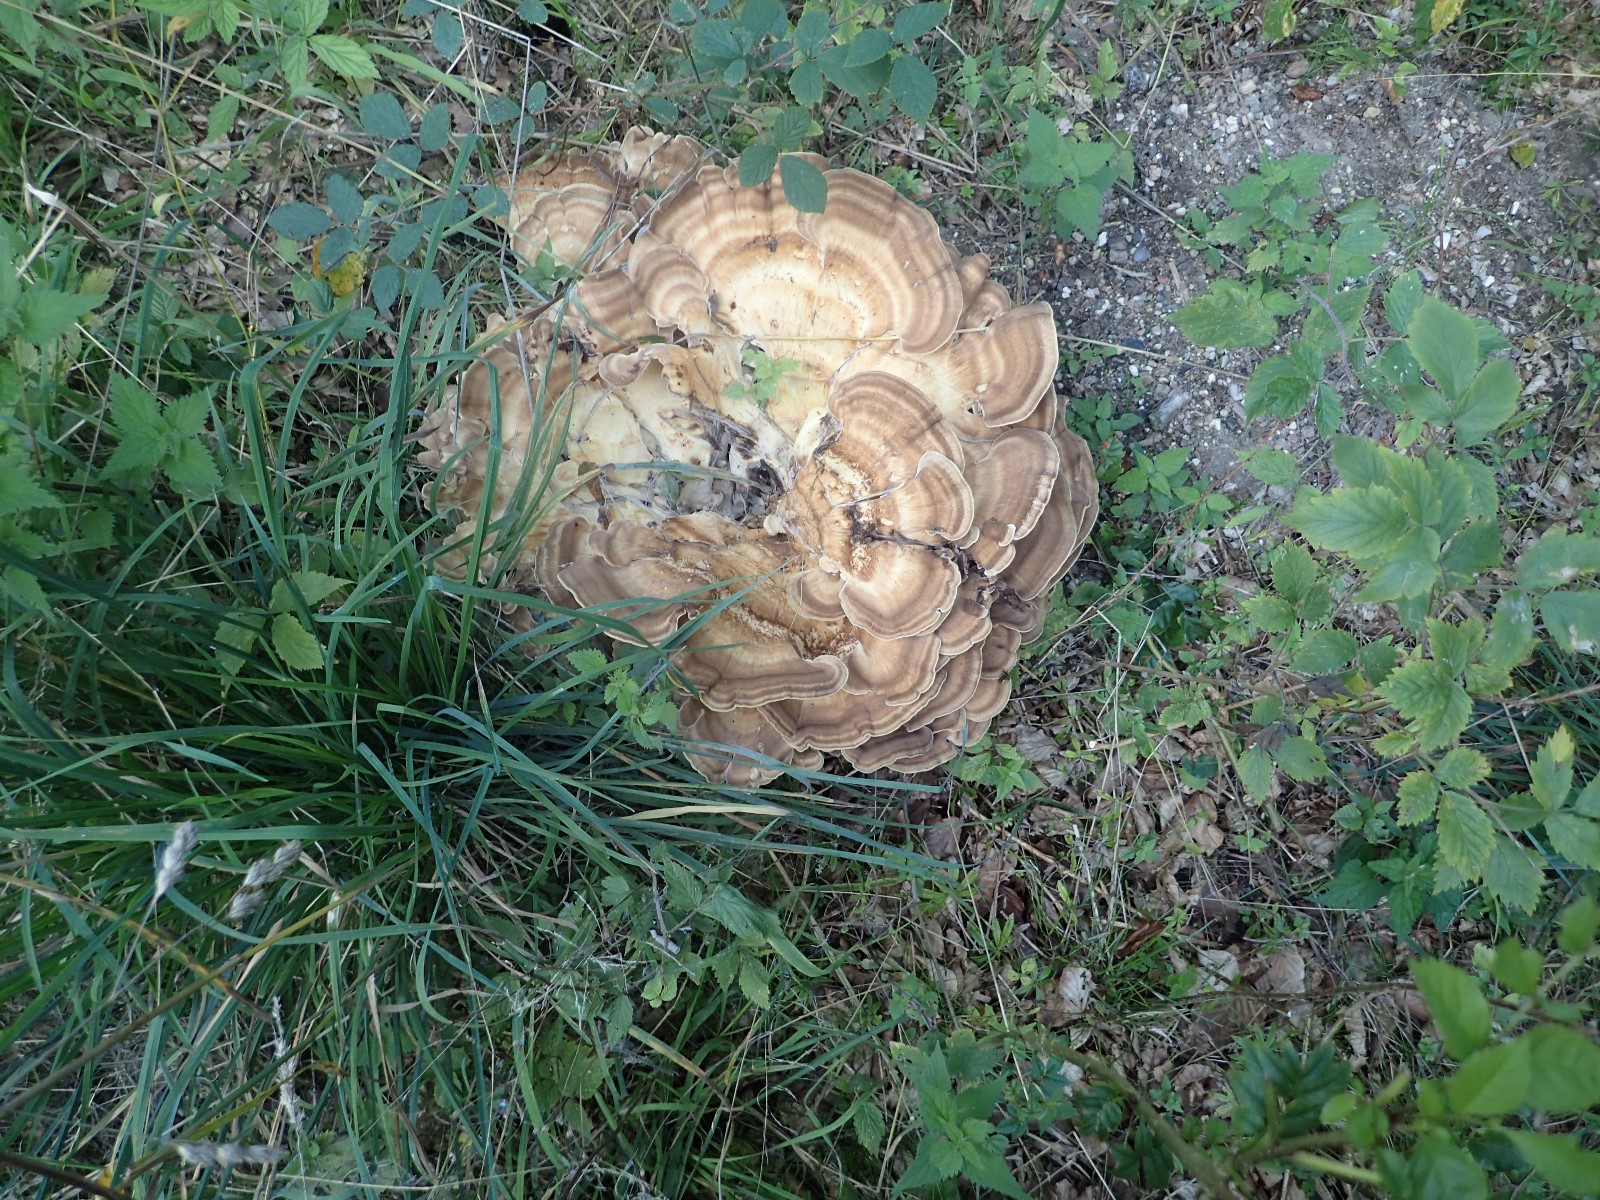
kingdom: Fungi
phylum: Basidiomycota
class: Agaricomycetes
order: Polyporales
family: Meripilaceae
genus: Meripilus
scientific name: Meripilus giganteus
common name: kæmpeporesvamp
